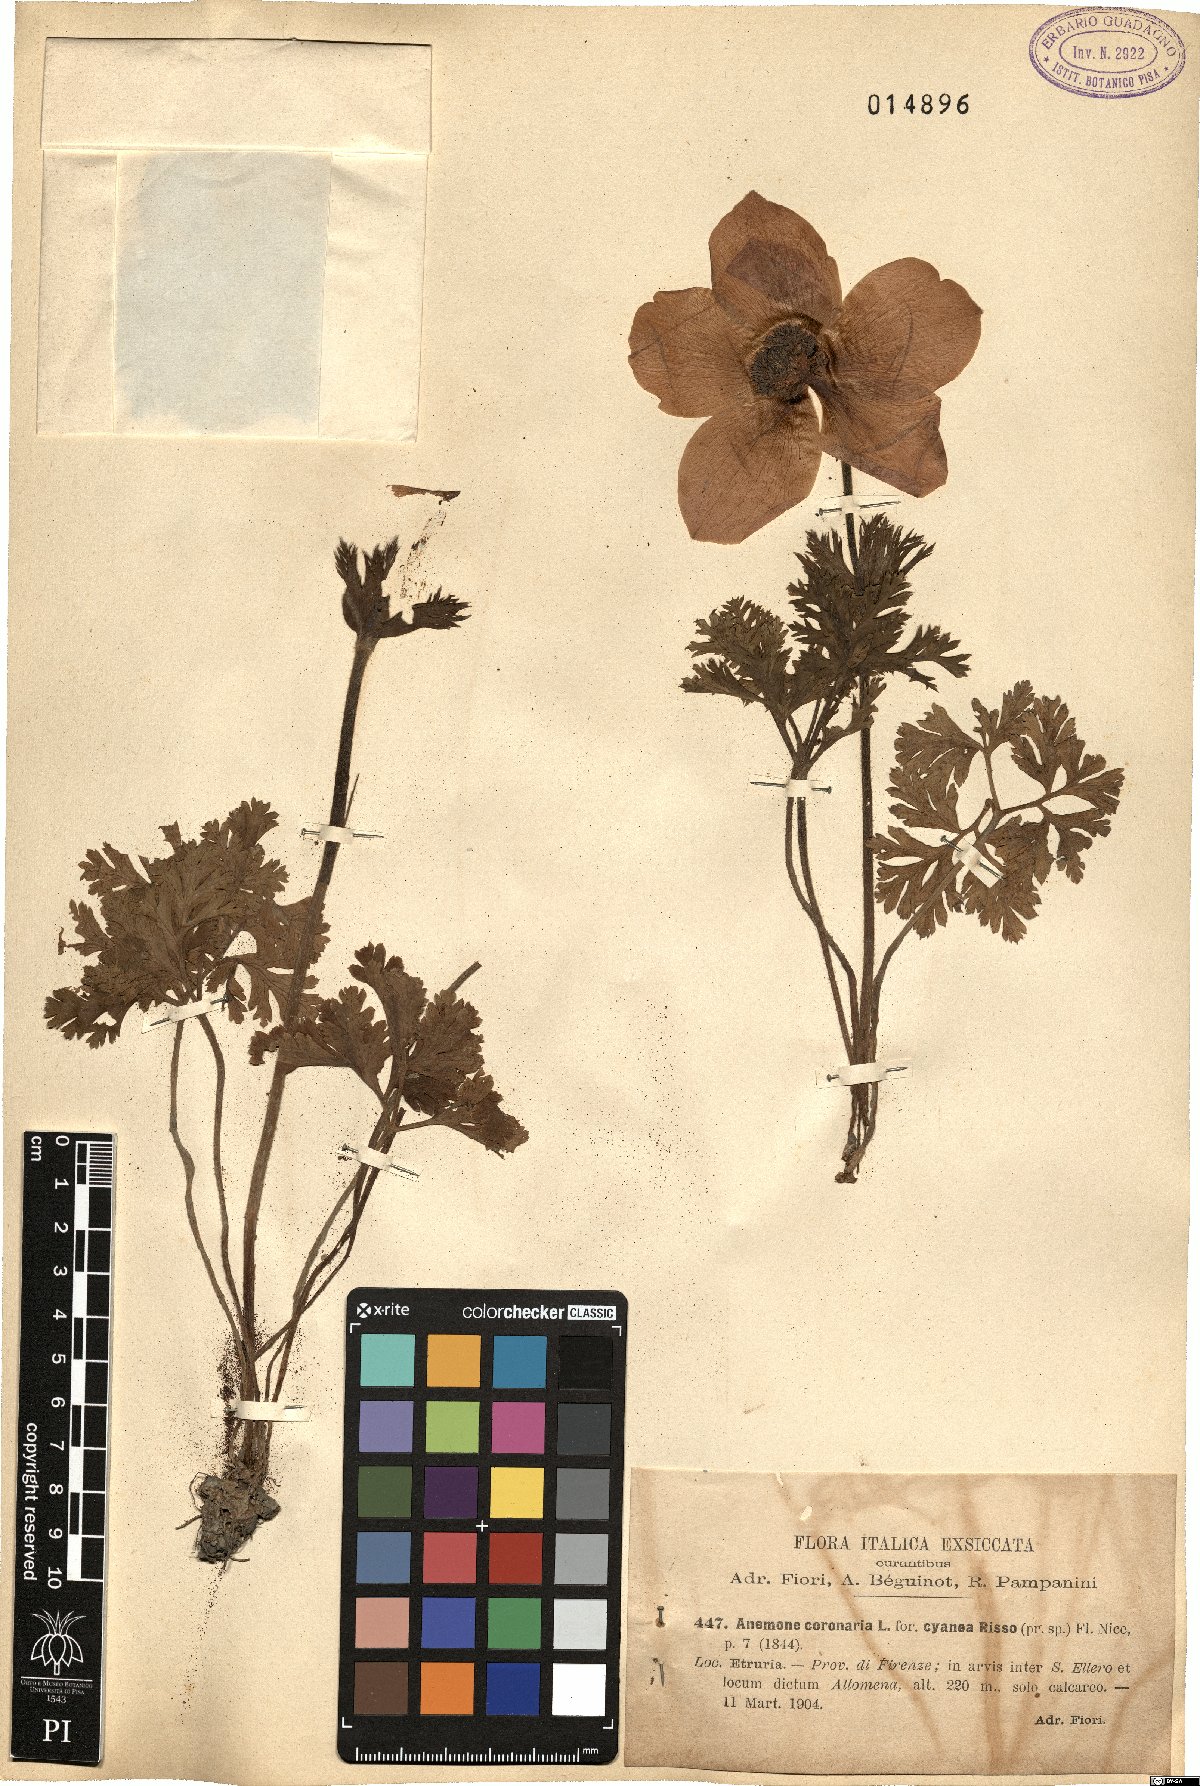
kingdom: Plantae
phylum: Tracheophyta
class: Magnoliopsida
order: Ranunculales
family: Ranunculaceae
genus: Anemone
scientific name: Anemone coronaria
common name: Poppy anemone
